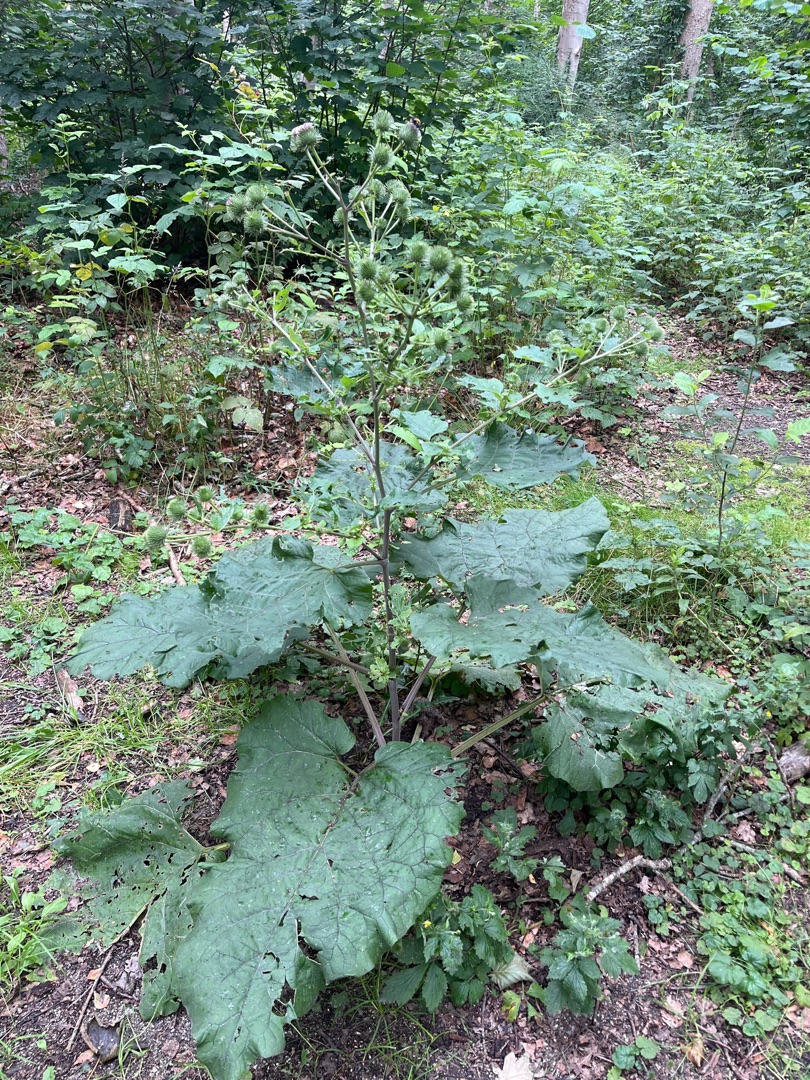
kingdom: Plantae
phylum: Tracheophyta
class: Magnoliopsida
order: Asterales
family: Asteraceae
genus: Arctium
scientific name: Arctium lappa
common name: Glat burre
